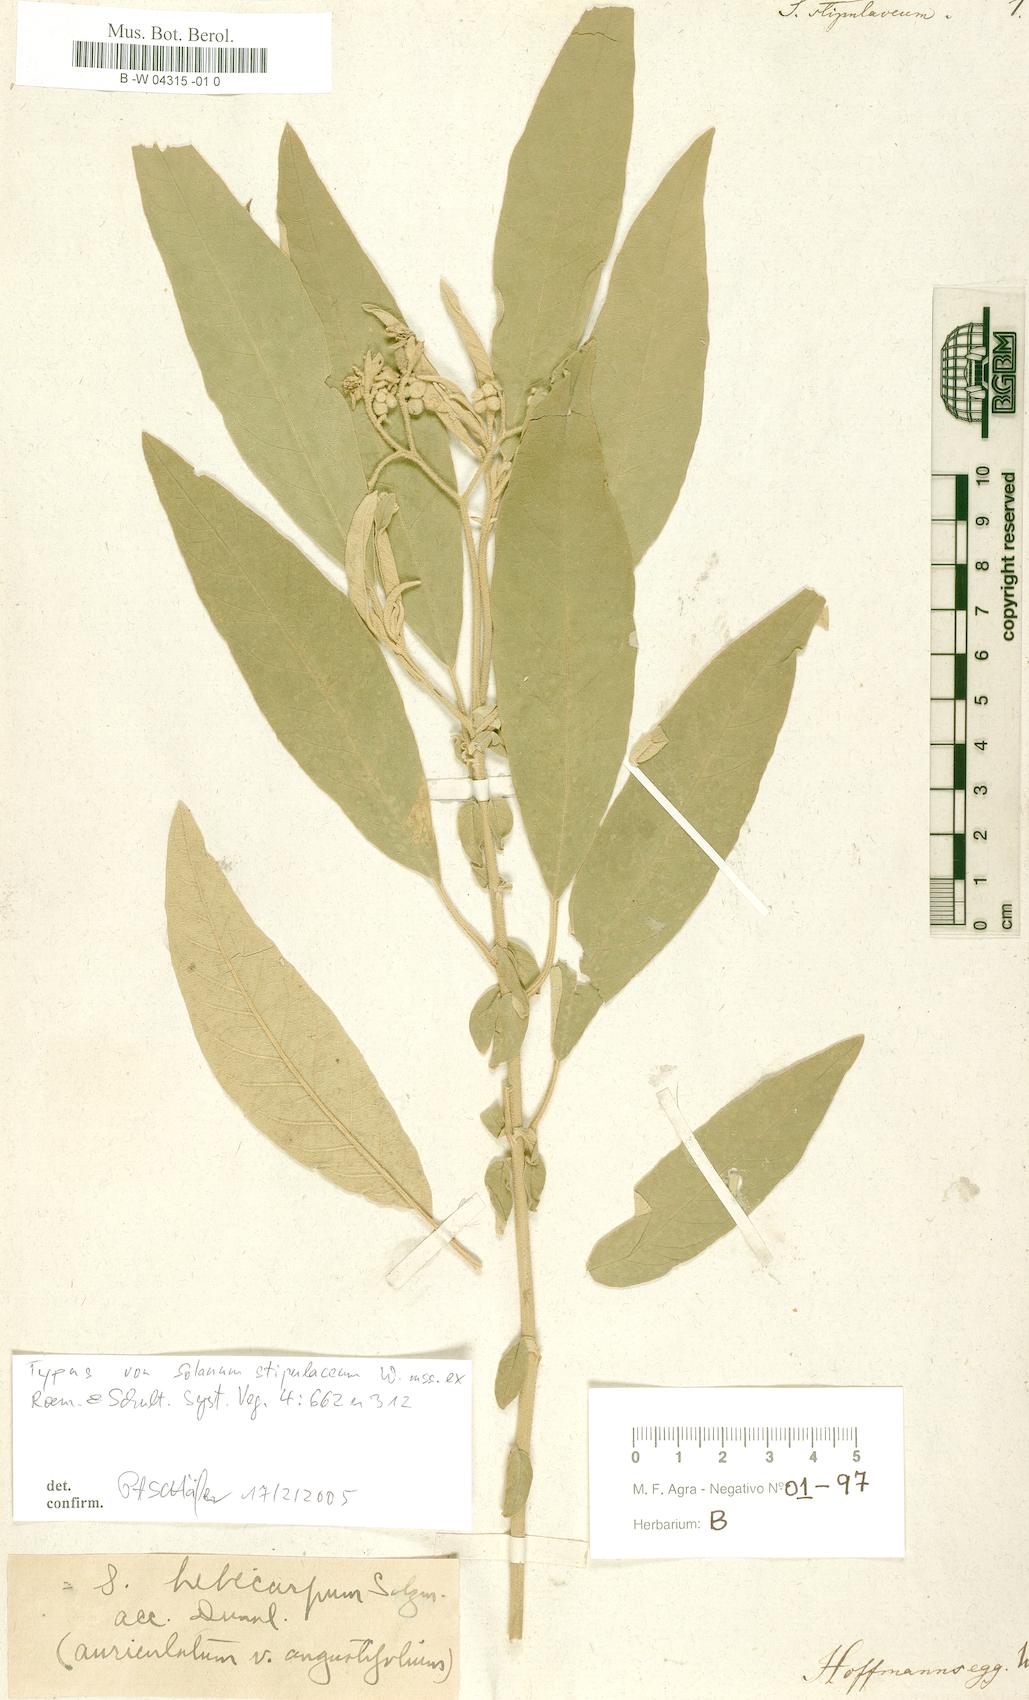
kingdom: Plantae
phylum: Tracheophyta
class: Magnoliopsida
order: Solanales
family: Solanaceae
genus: Solanum
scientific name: Solanum stipulaceum
